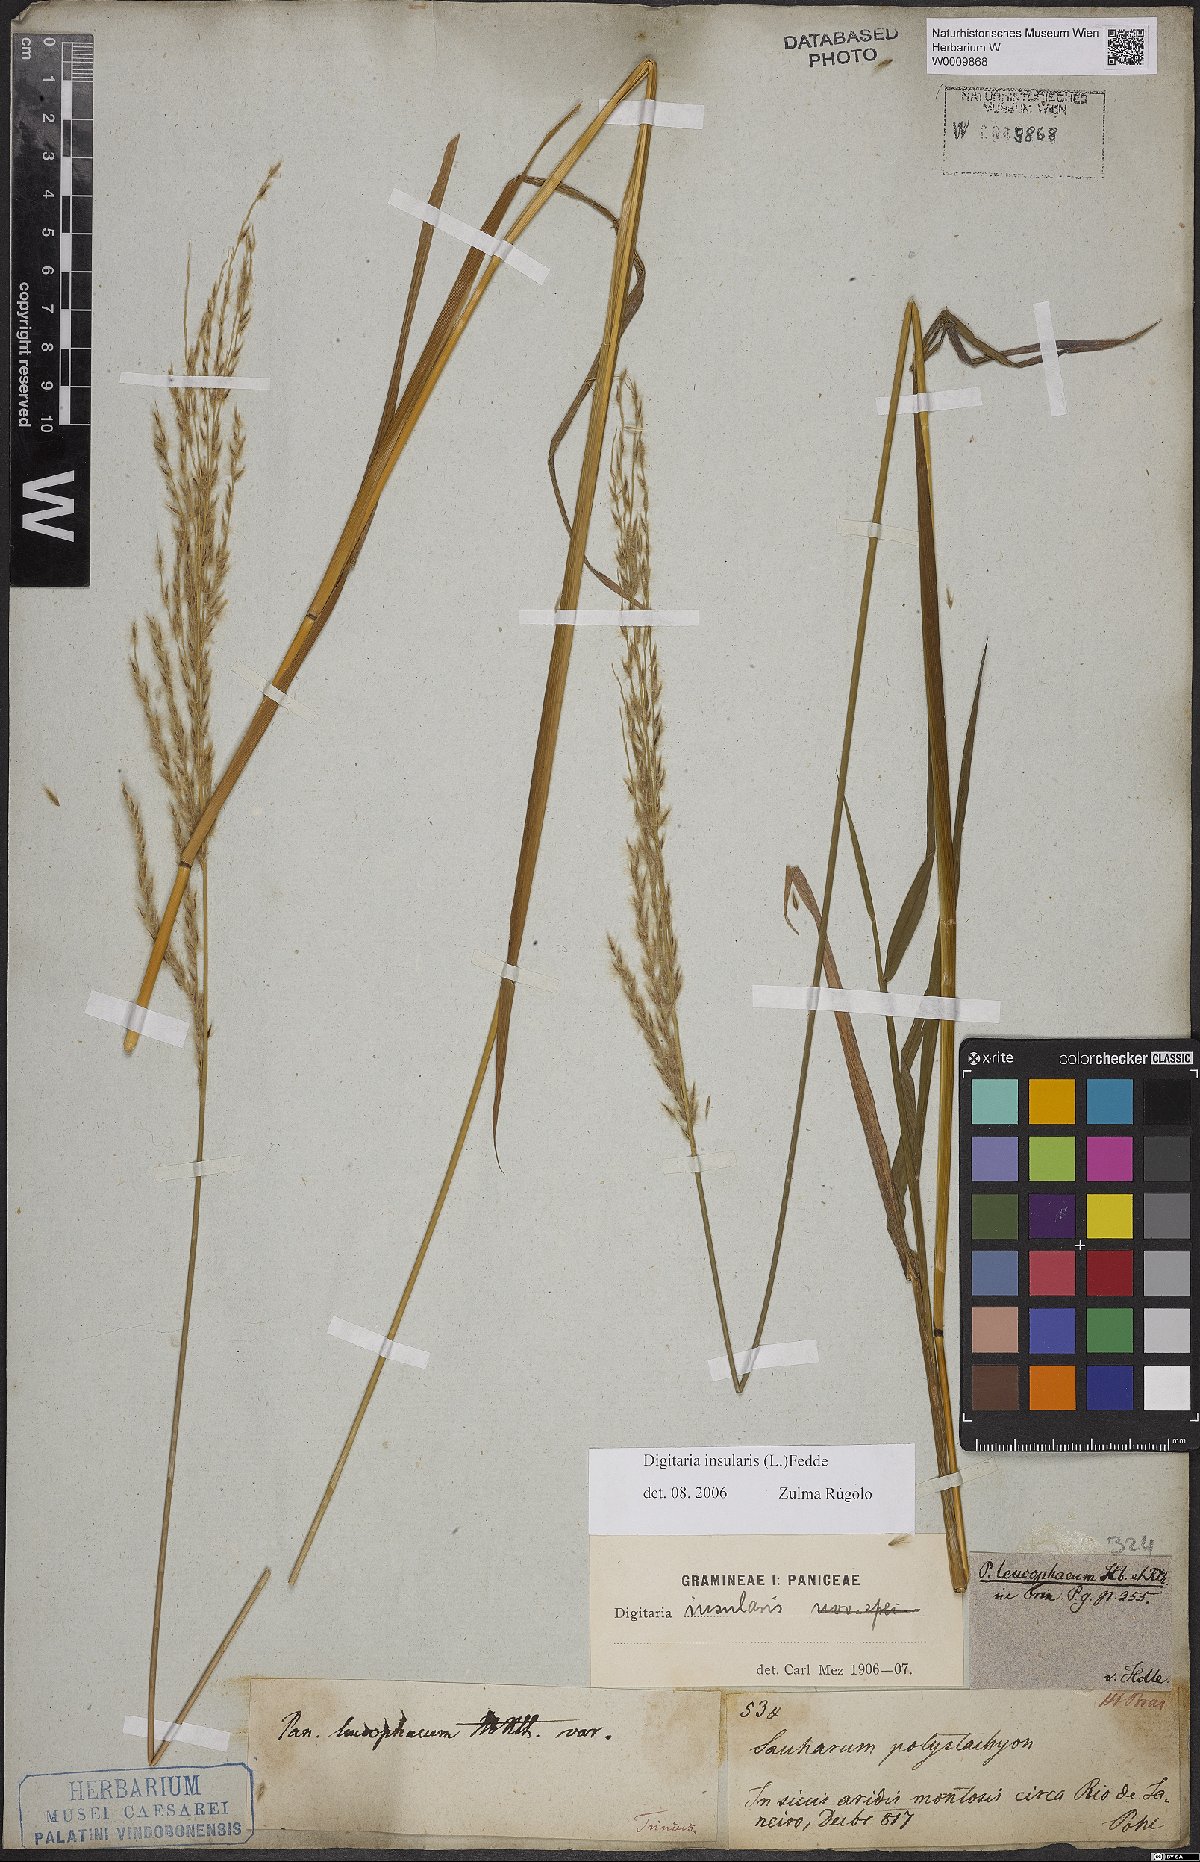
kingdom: Plantae
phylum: Tracheophyta
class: Liliopsida
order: Poales
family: Poaceae
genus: Digitaria
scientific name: Digitaria insularis
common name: Sourgrass
